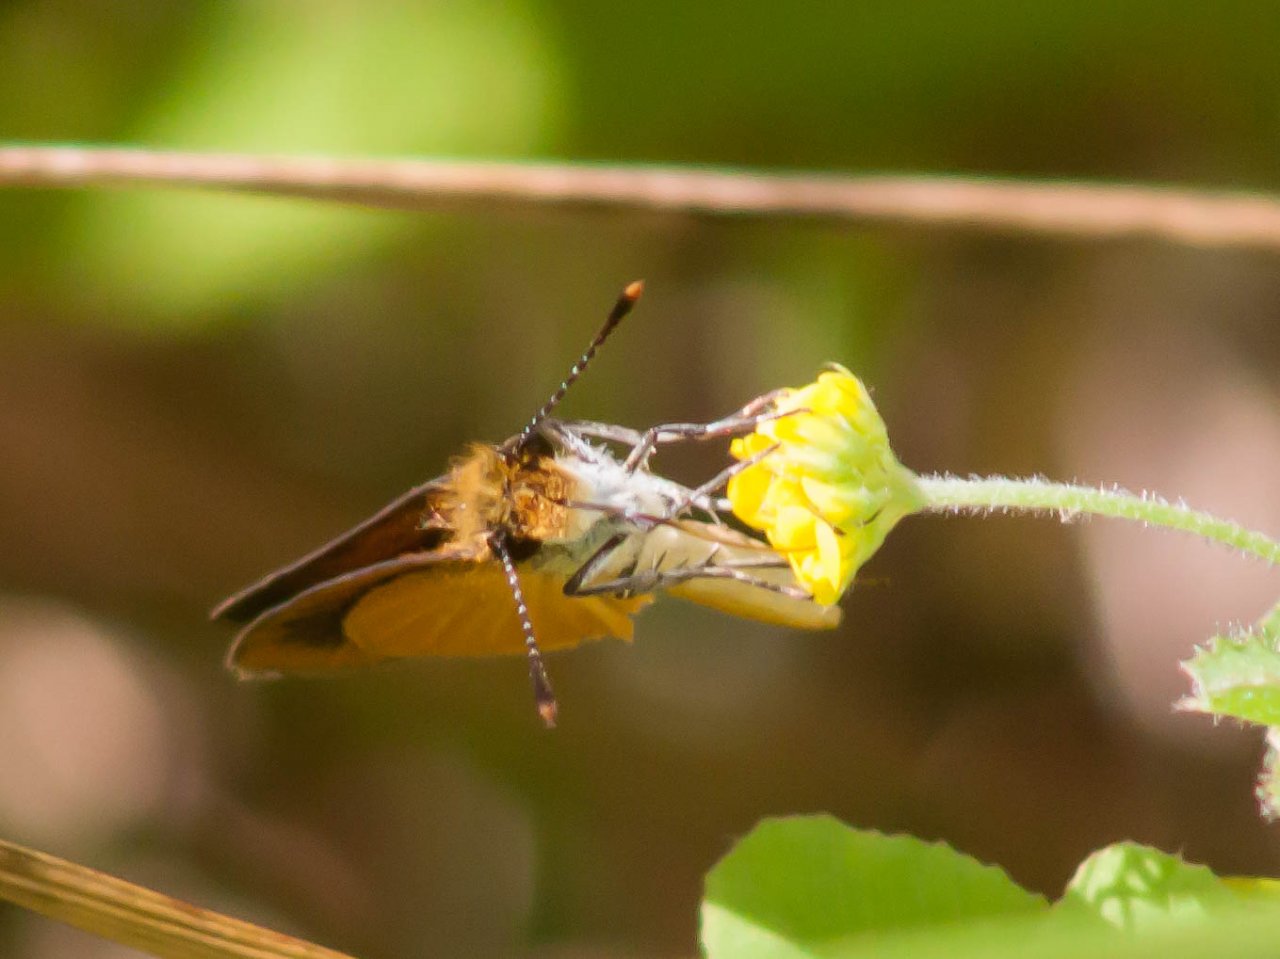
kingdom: Animalia
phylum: Arthropoda
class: Insecta
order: Lepidoptera
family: Hesperiidae
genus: Ancyloxypha
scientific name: Ancyloxypha numitor
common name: Least Skipper
